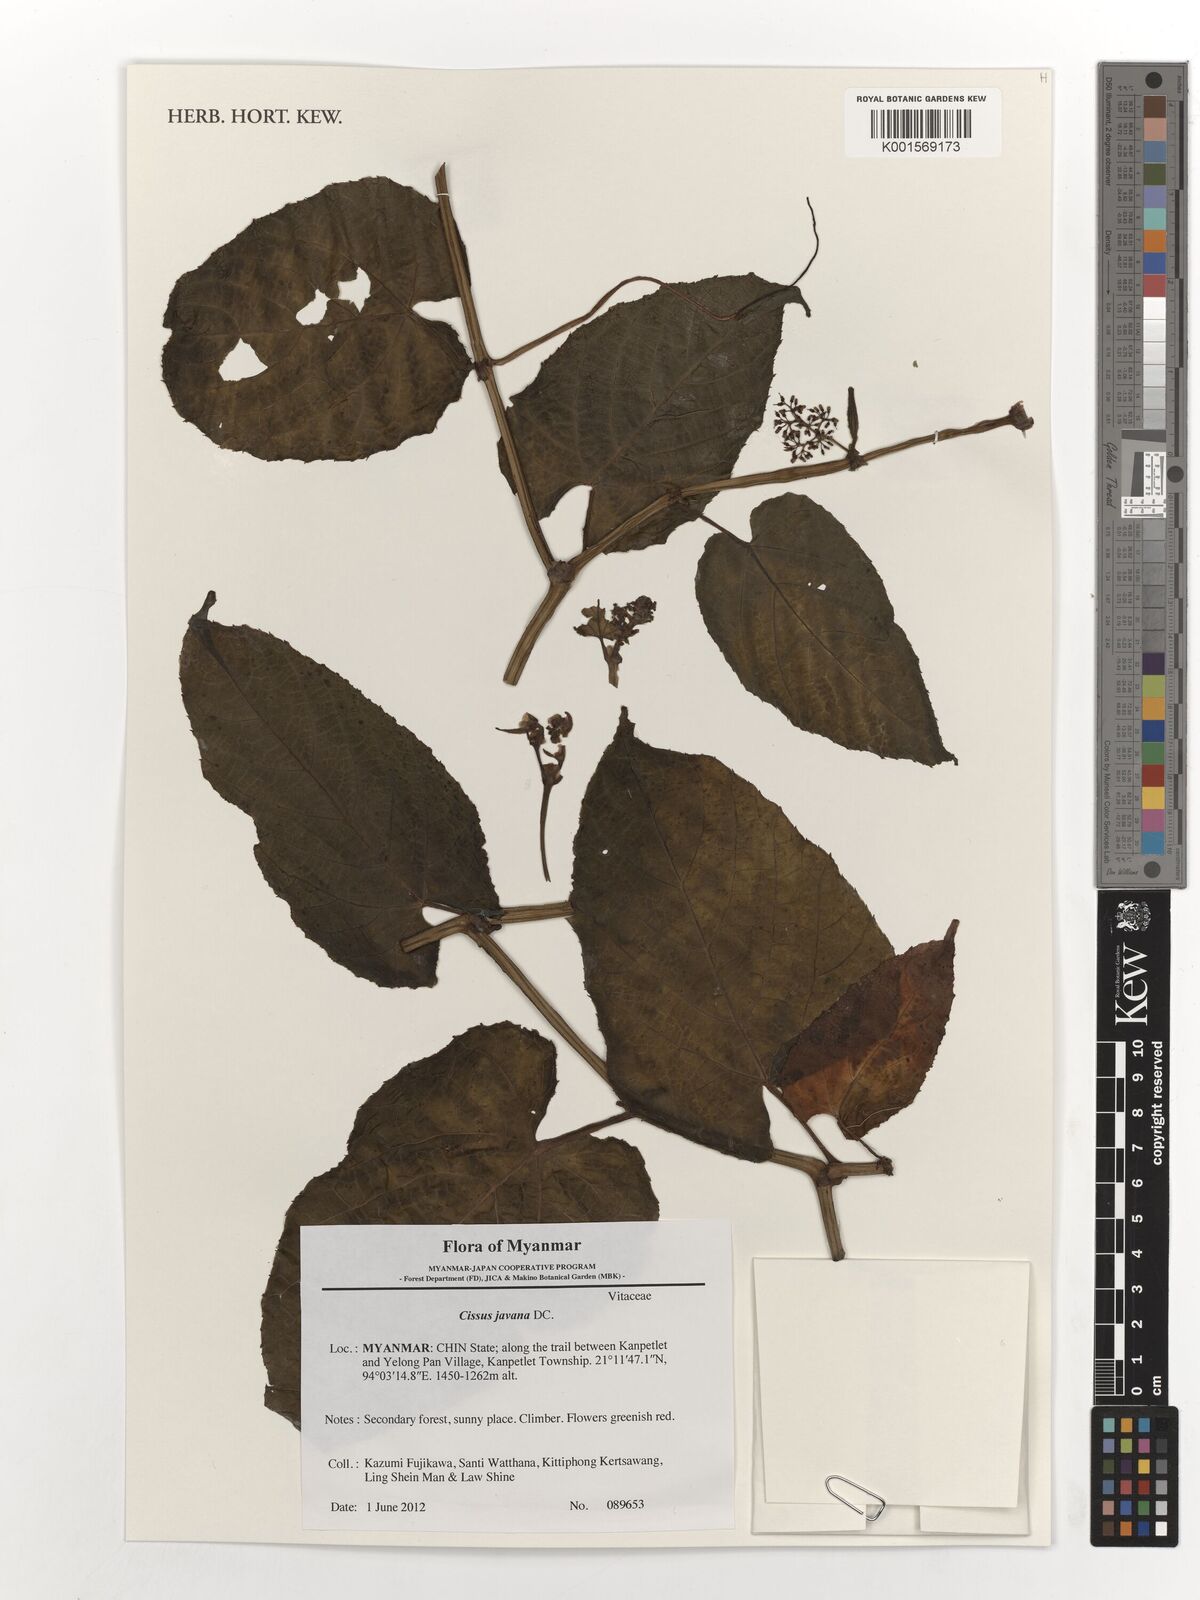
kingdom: Plantae
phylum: Tracheophyta
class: Magnoliopsida
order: Vitales
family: Vitaceae
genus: Cissus
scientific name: Cissus discolor
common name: Climbing-begonia
